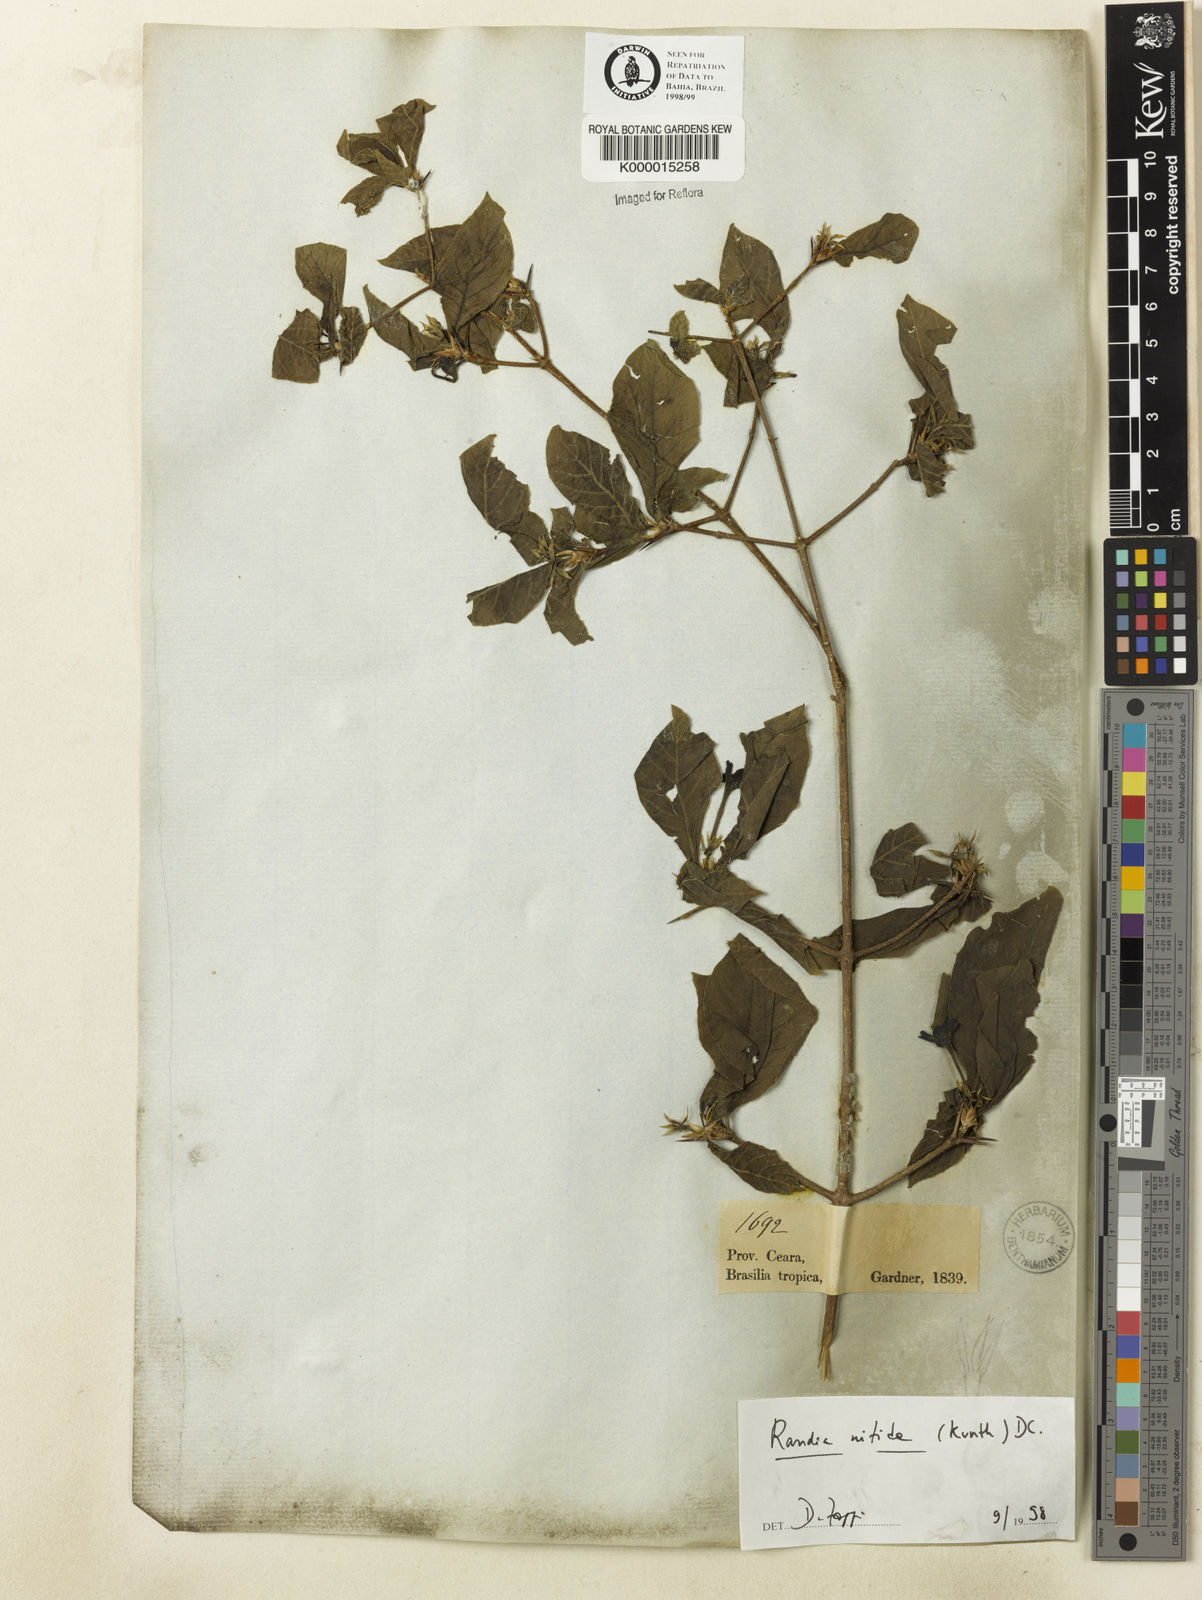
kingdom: Plantae
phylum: Tracheophyta
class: Magnoliopsida
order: Gentianales
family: Rubiaceae
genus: Randia
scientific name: Randia nitida
